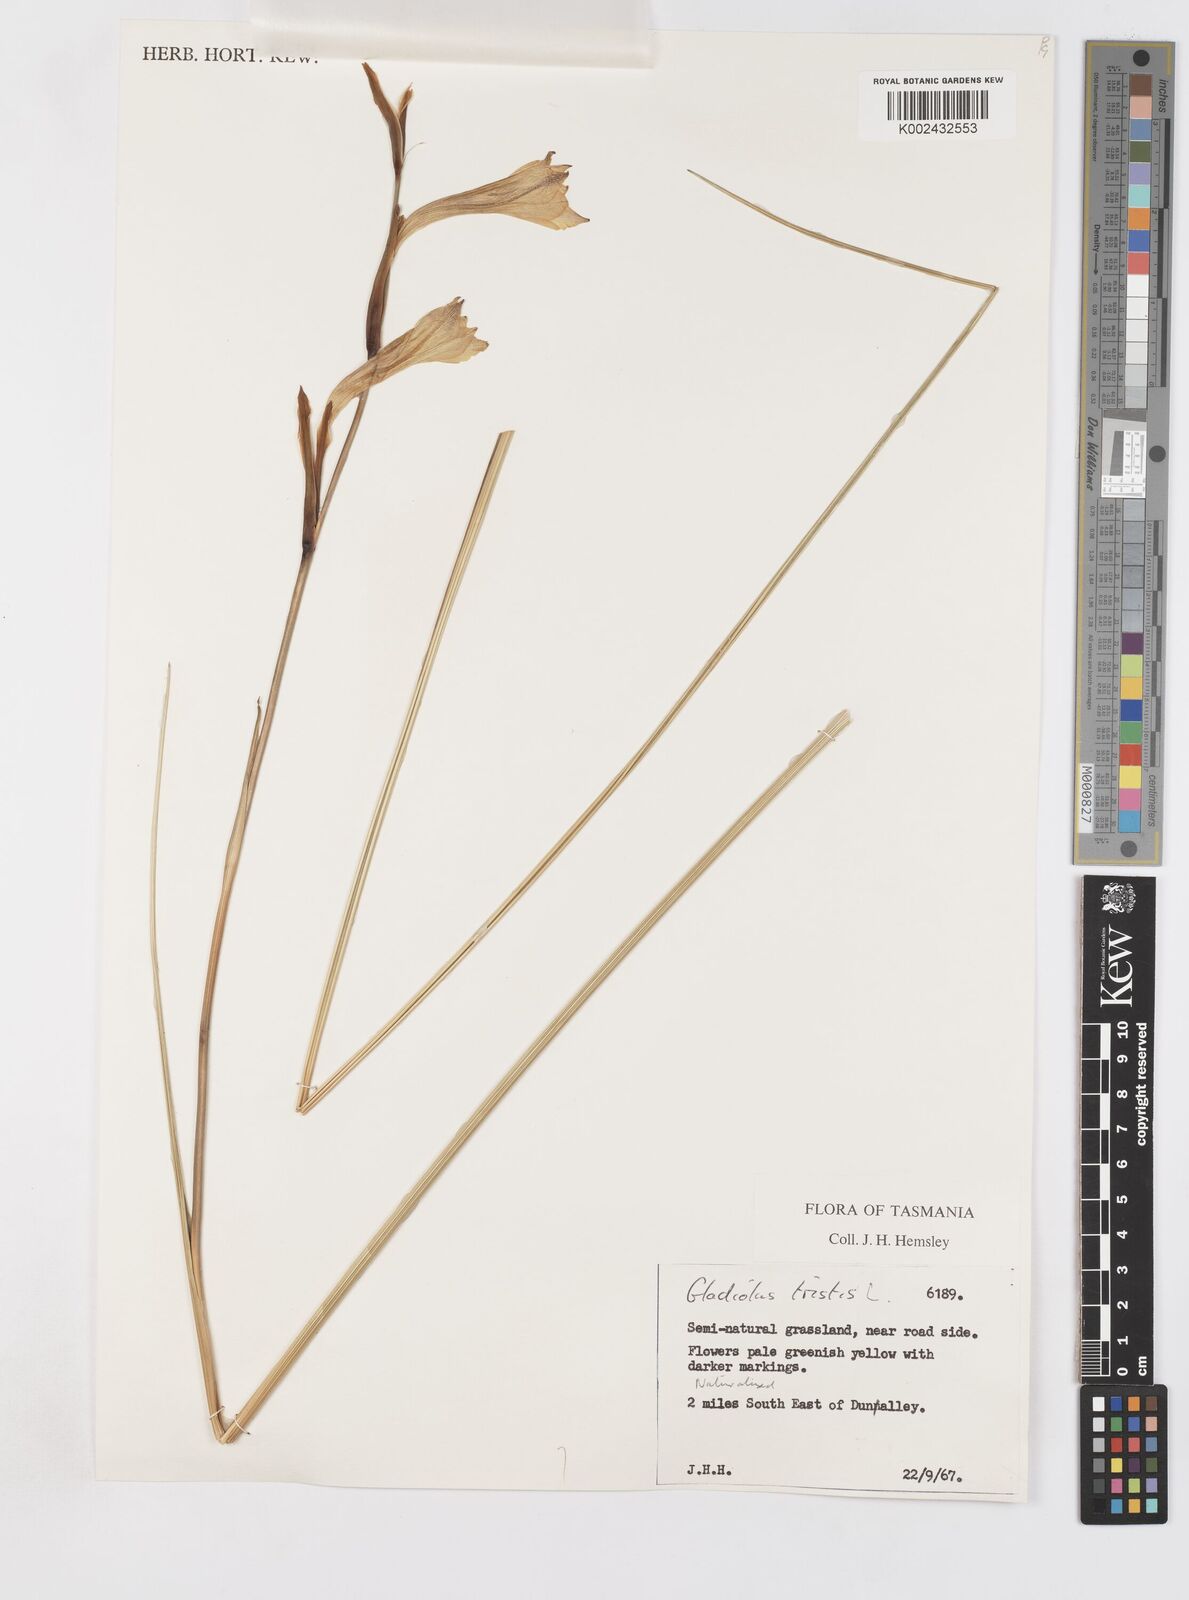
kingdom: Plantae
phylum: Tracheophyta
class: Liliopsida
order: Asparagales
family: Iridaceae
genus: Gladiolus
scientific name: Gladiolus tristis
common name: Ever-flowering gladiolus
